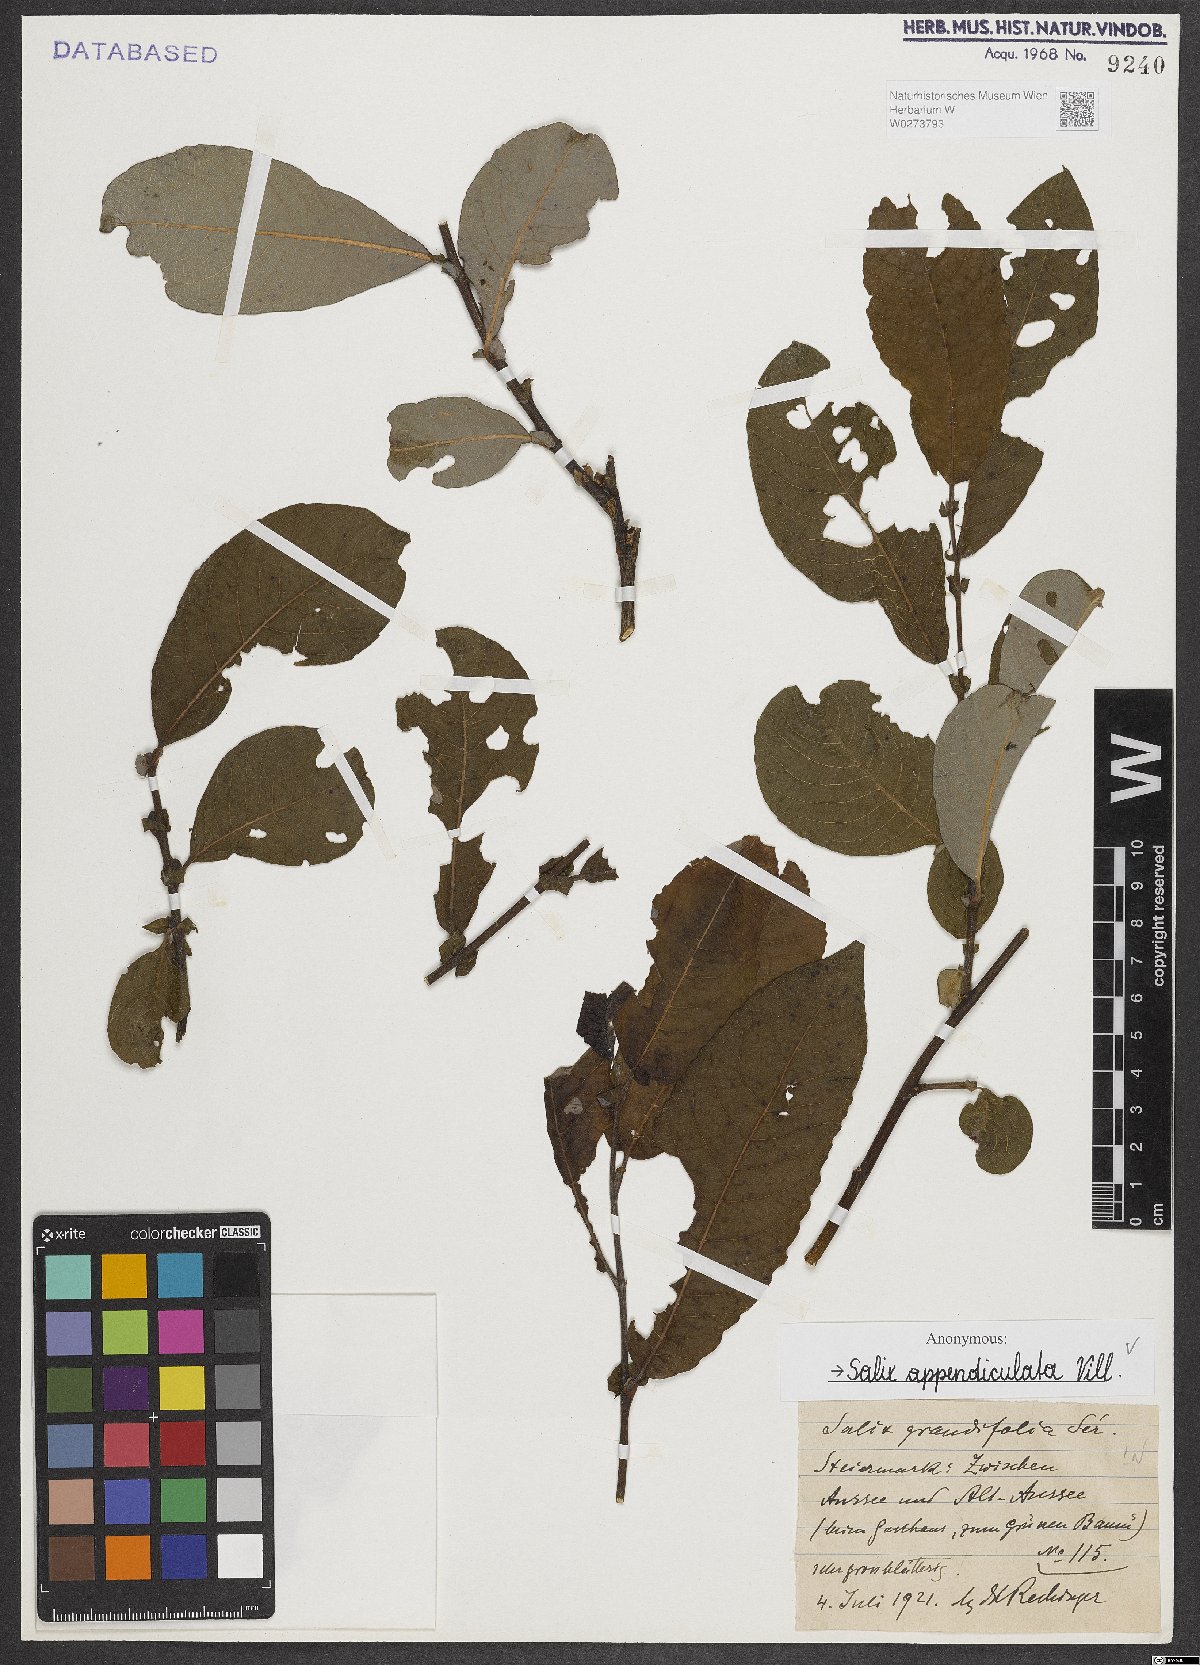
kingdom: Plantae
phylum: Tracheophyta
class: Magnoliopsida
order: Malpighiales
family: Salicaceae
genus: Salix
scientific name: Salix appendiculata
